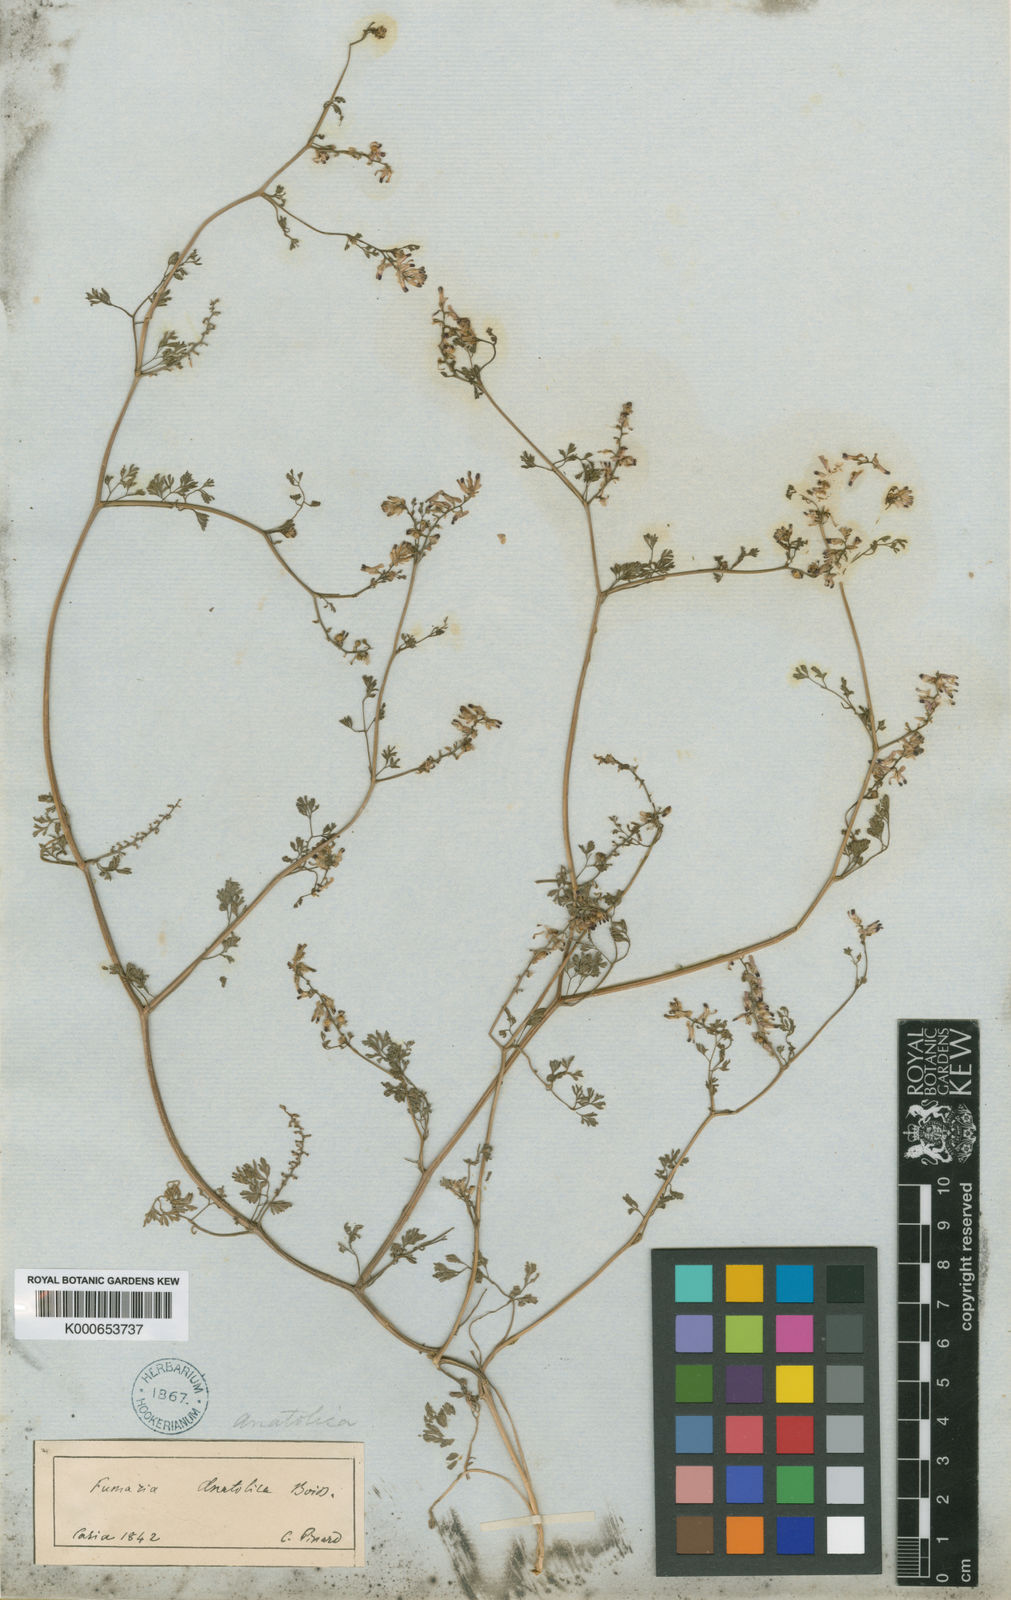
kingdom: Plantae
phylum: Tracheophyta
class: Magnoliopsida
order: Ranunculales
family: Papaveraceae
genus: Fumaria
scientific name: Fumaria kralikii
